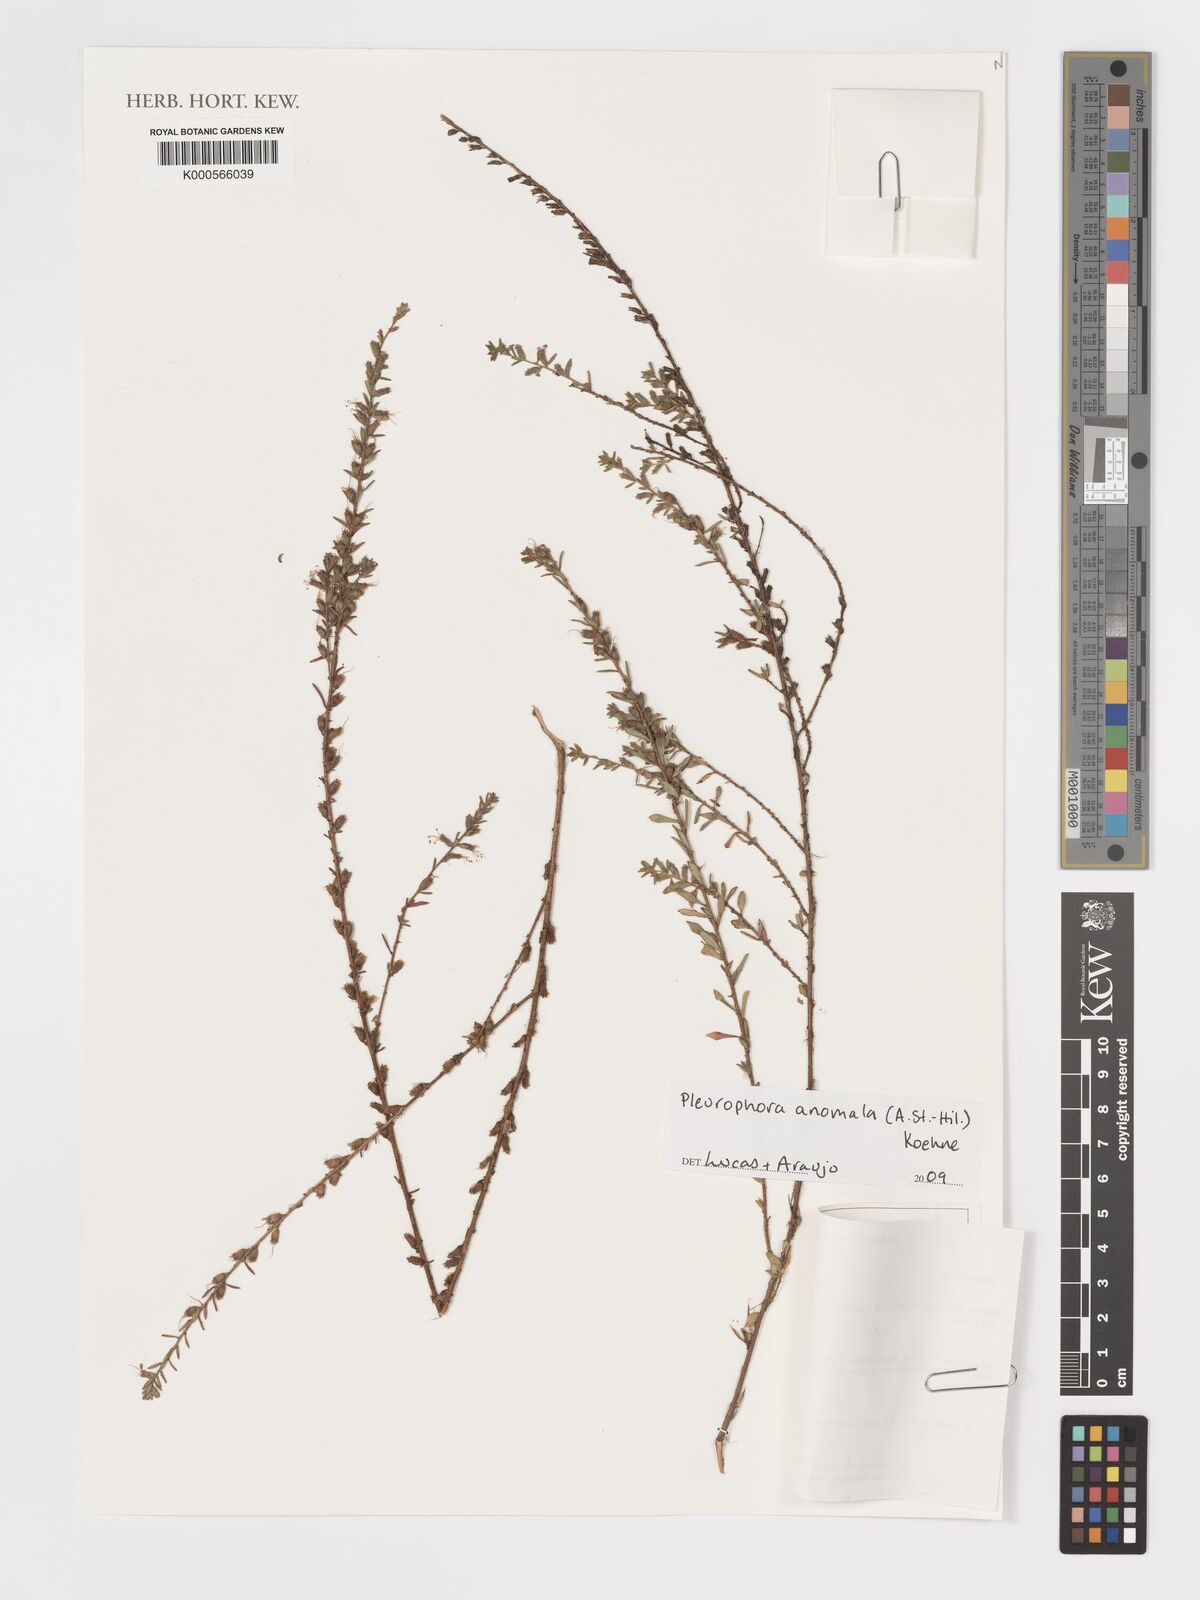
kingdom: Plantae
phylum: Tracheophyta
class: Magnoliopsida
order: Myrtales
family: Lythraceae
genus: Pleurophora
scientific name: Pleurophora anomala
